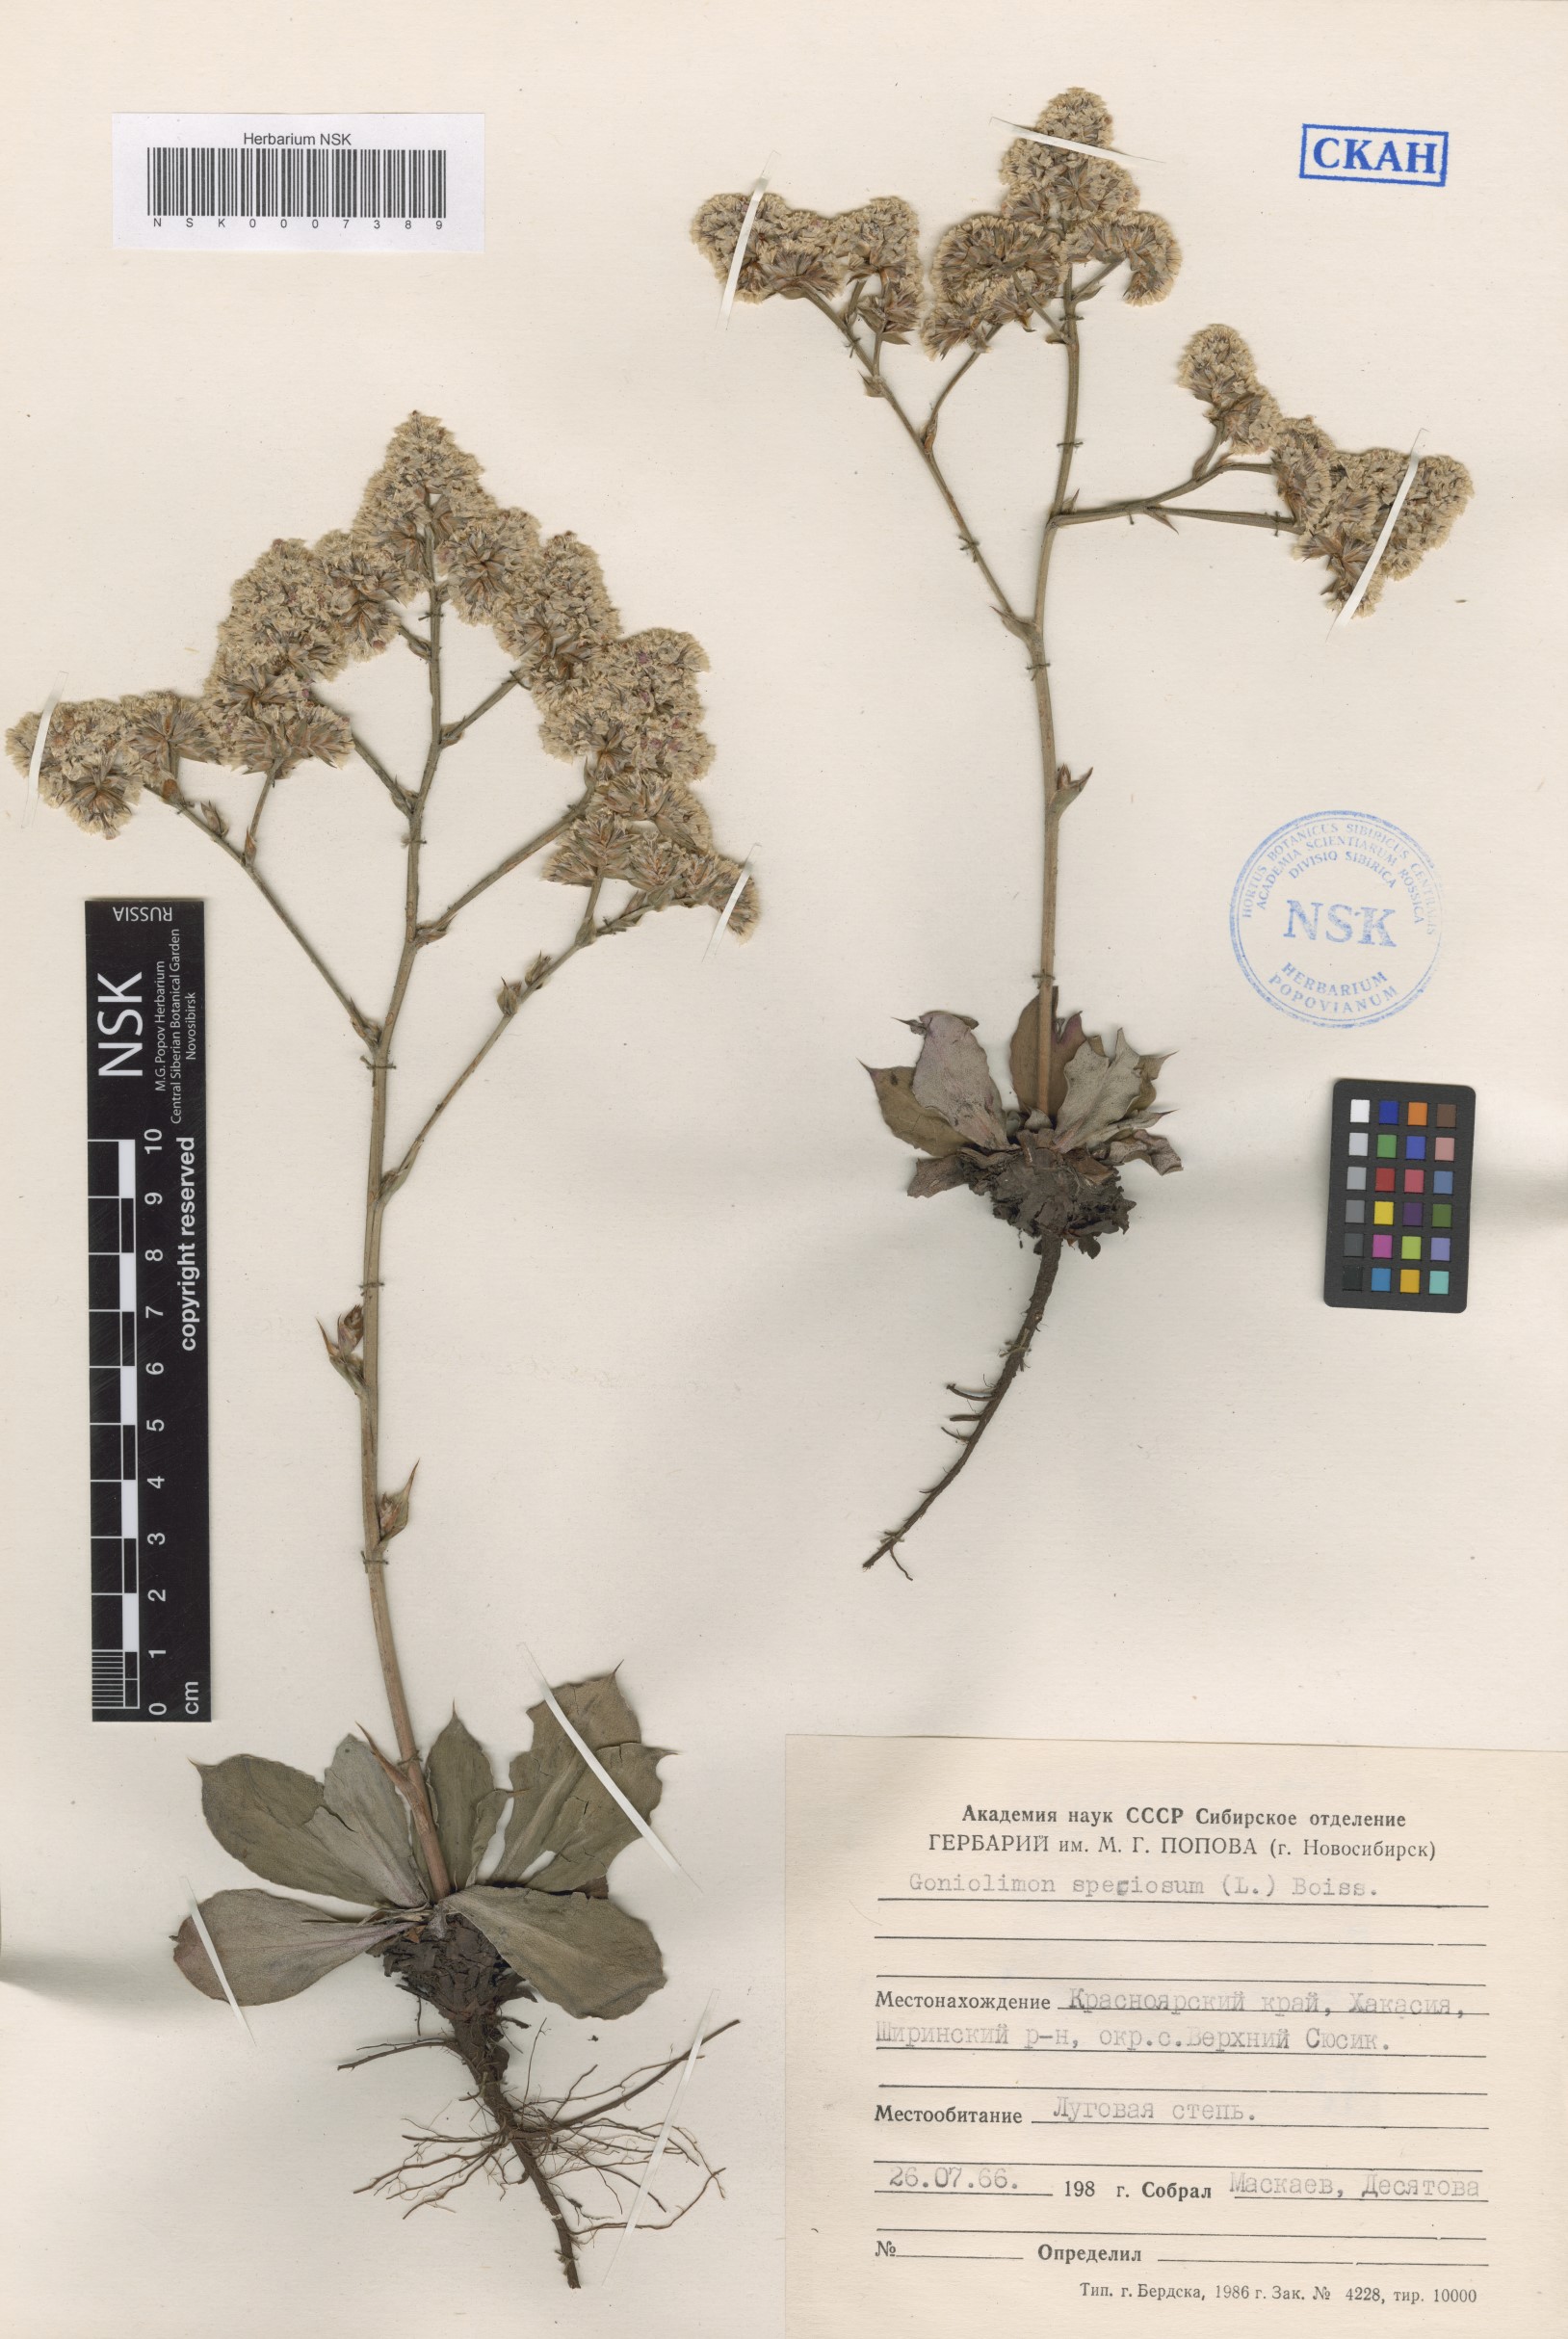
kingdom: Plantae
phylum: Tracheophyta
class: Magnoliopsida
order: Caryophyllales
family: Plumbaginaceae
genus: Goniolimon
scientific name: Goniolimon speciosum
